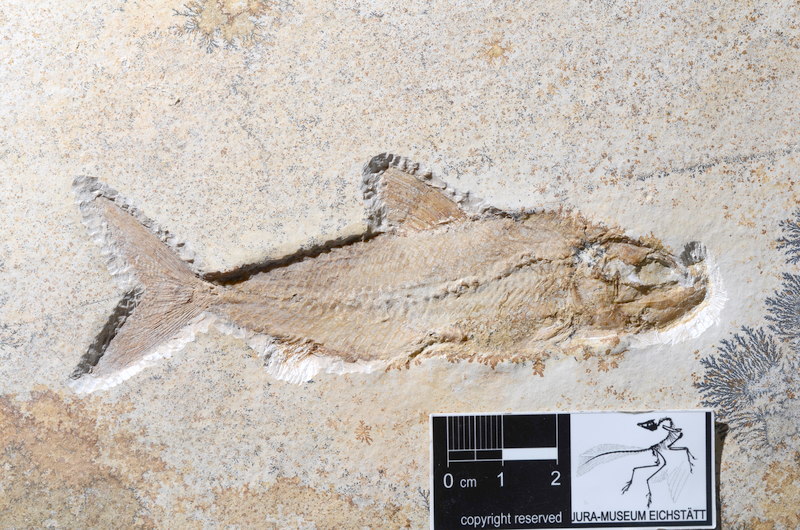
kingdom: Animalia
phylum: Chordata
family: Ankylophoridae
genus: Pholidophoristion
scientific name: Pholidophoristion micronyx
